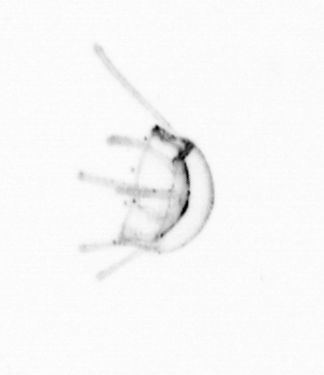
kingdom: Animalia
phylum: Cnidaria
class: Hydrozoa
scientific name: Hydrozoa
